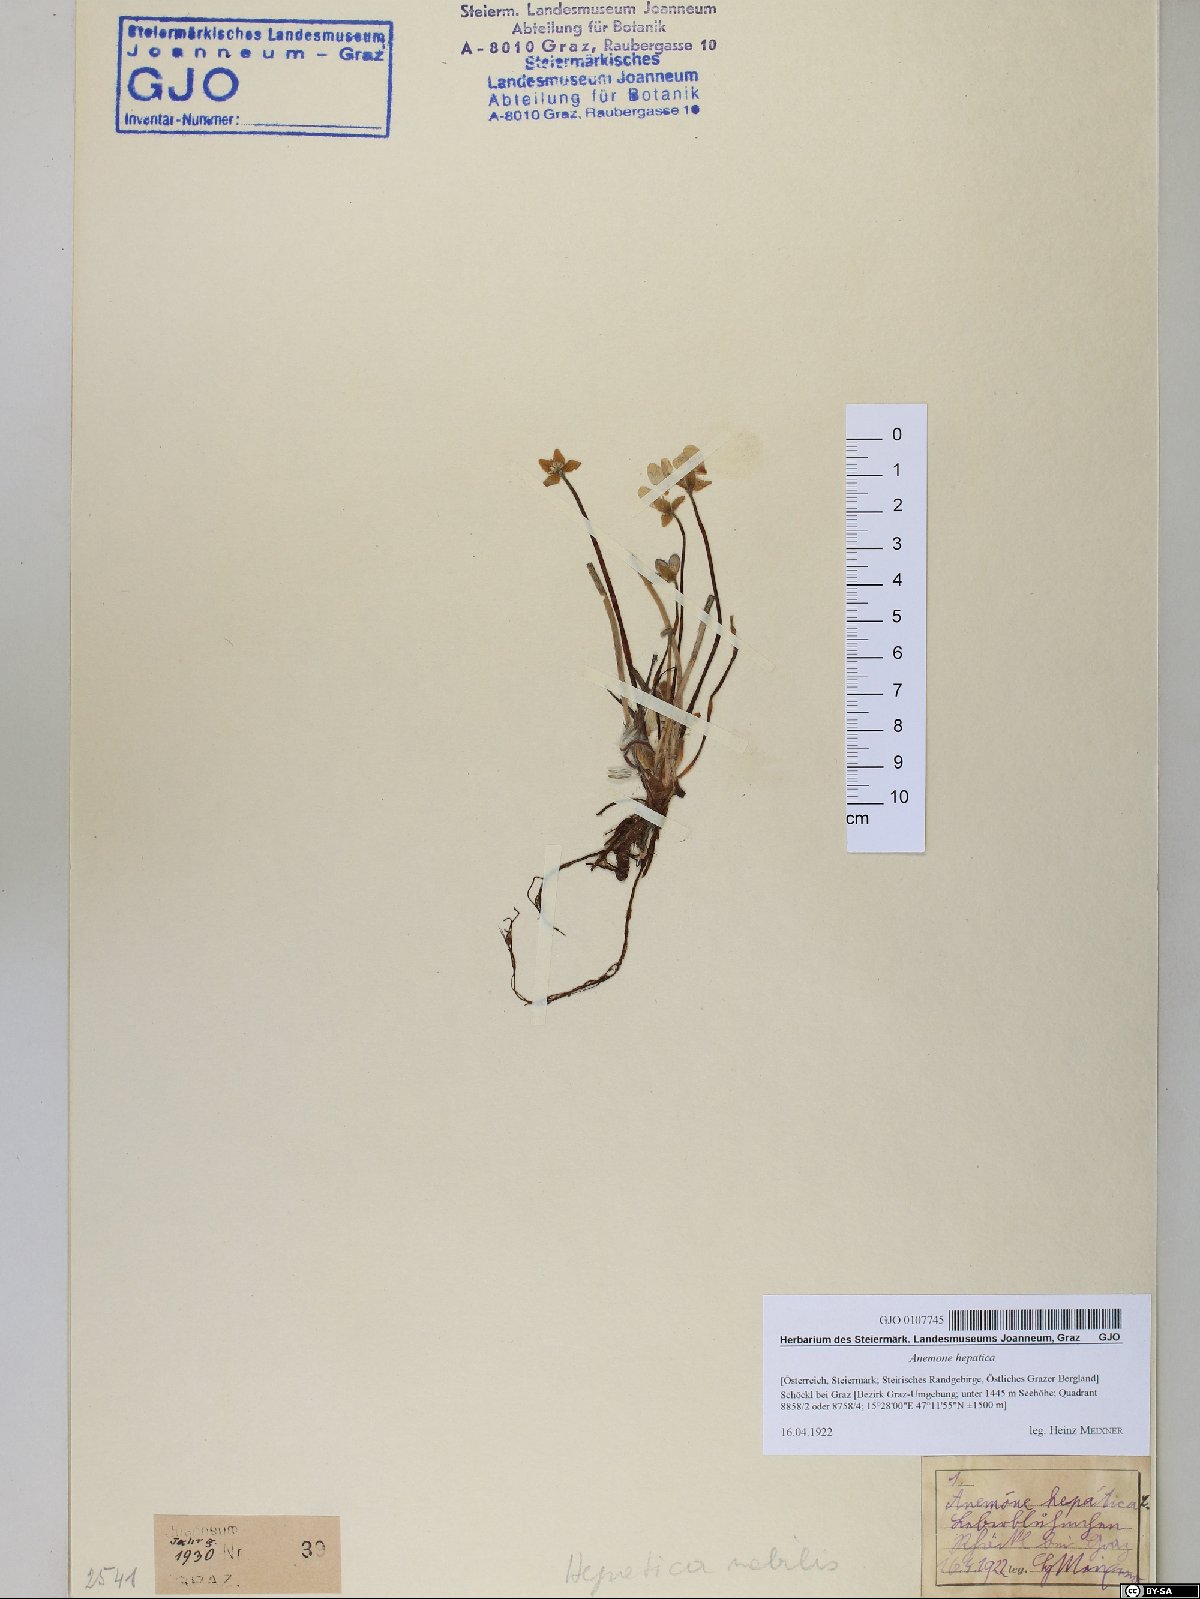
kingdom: Plantae
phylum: Tracheophyta
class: Magnoliopsida
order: Ranunculales
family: Ranunculaceae
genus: Hepatica
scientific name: Hepatica nobilis
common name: Liverleaf
